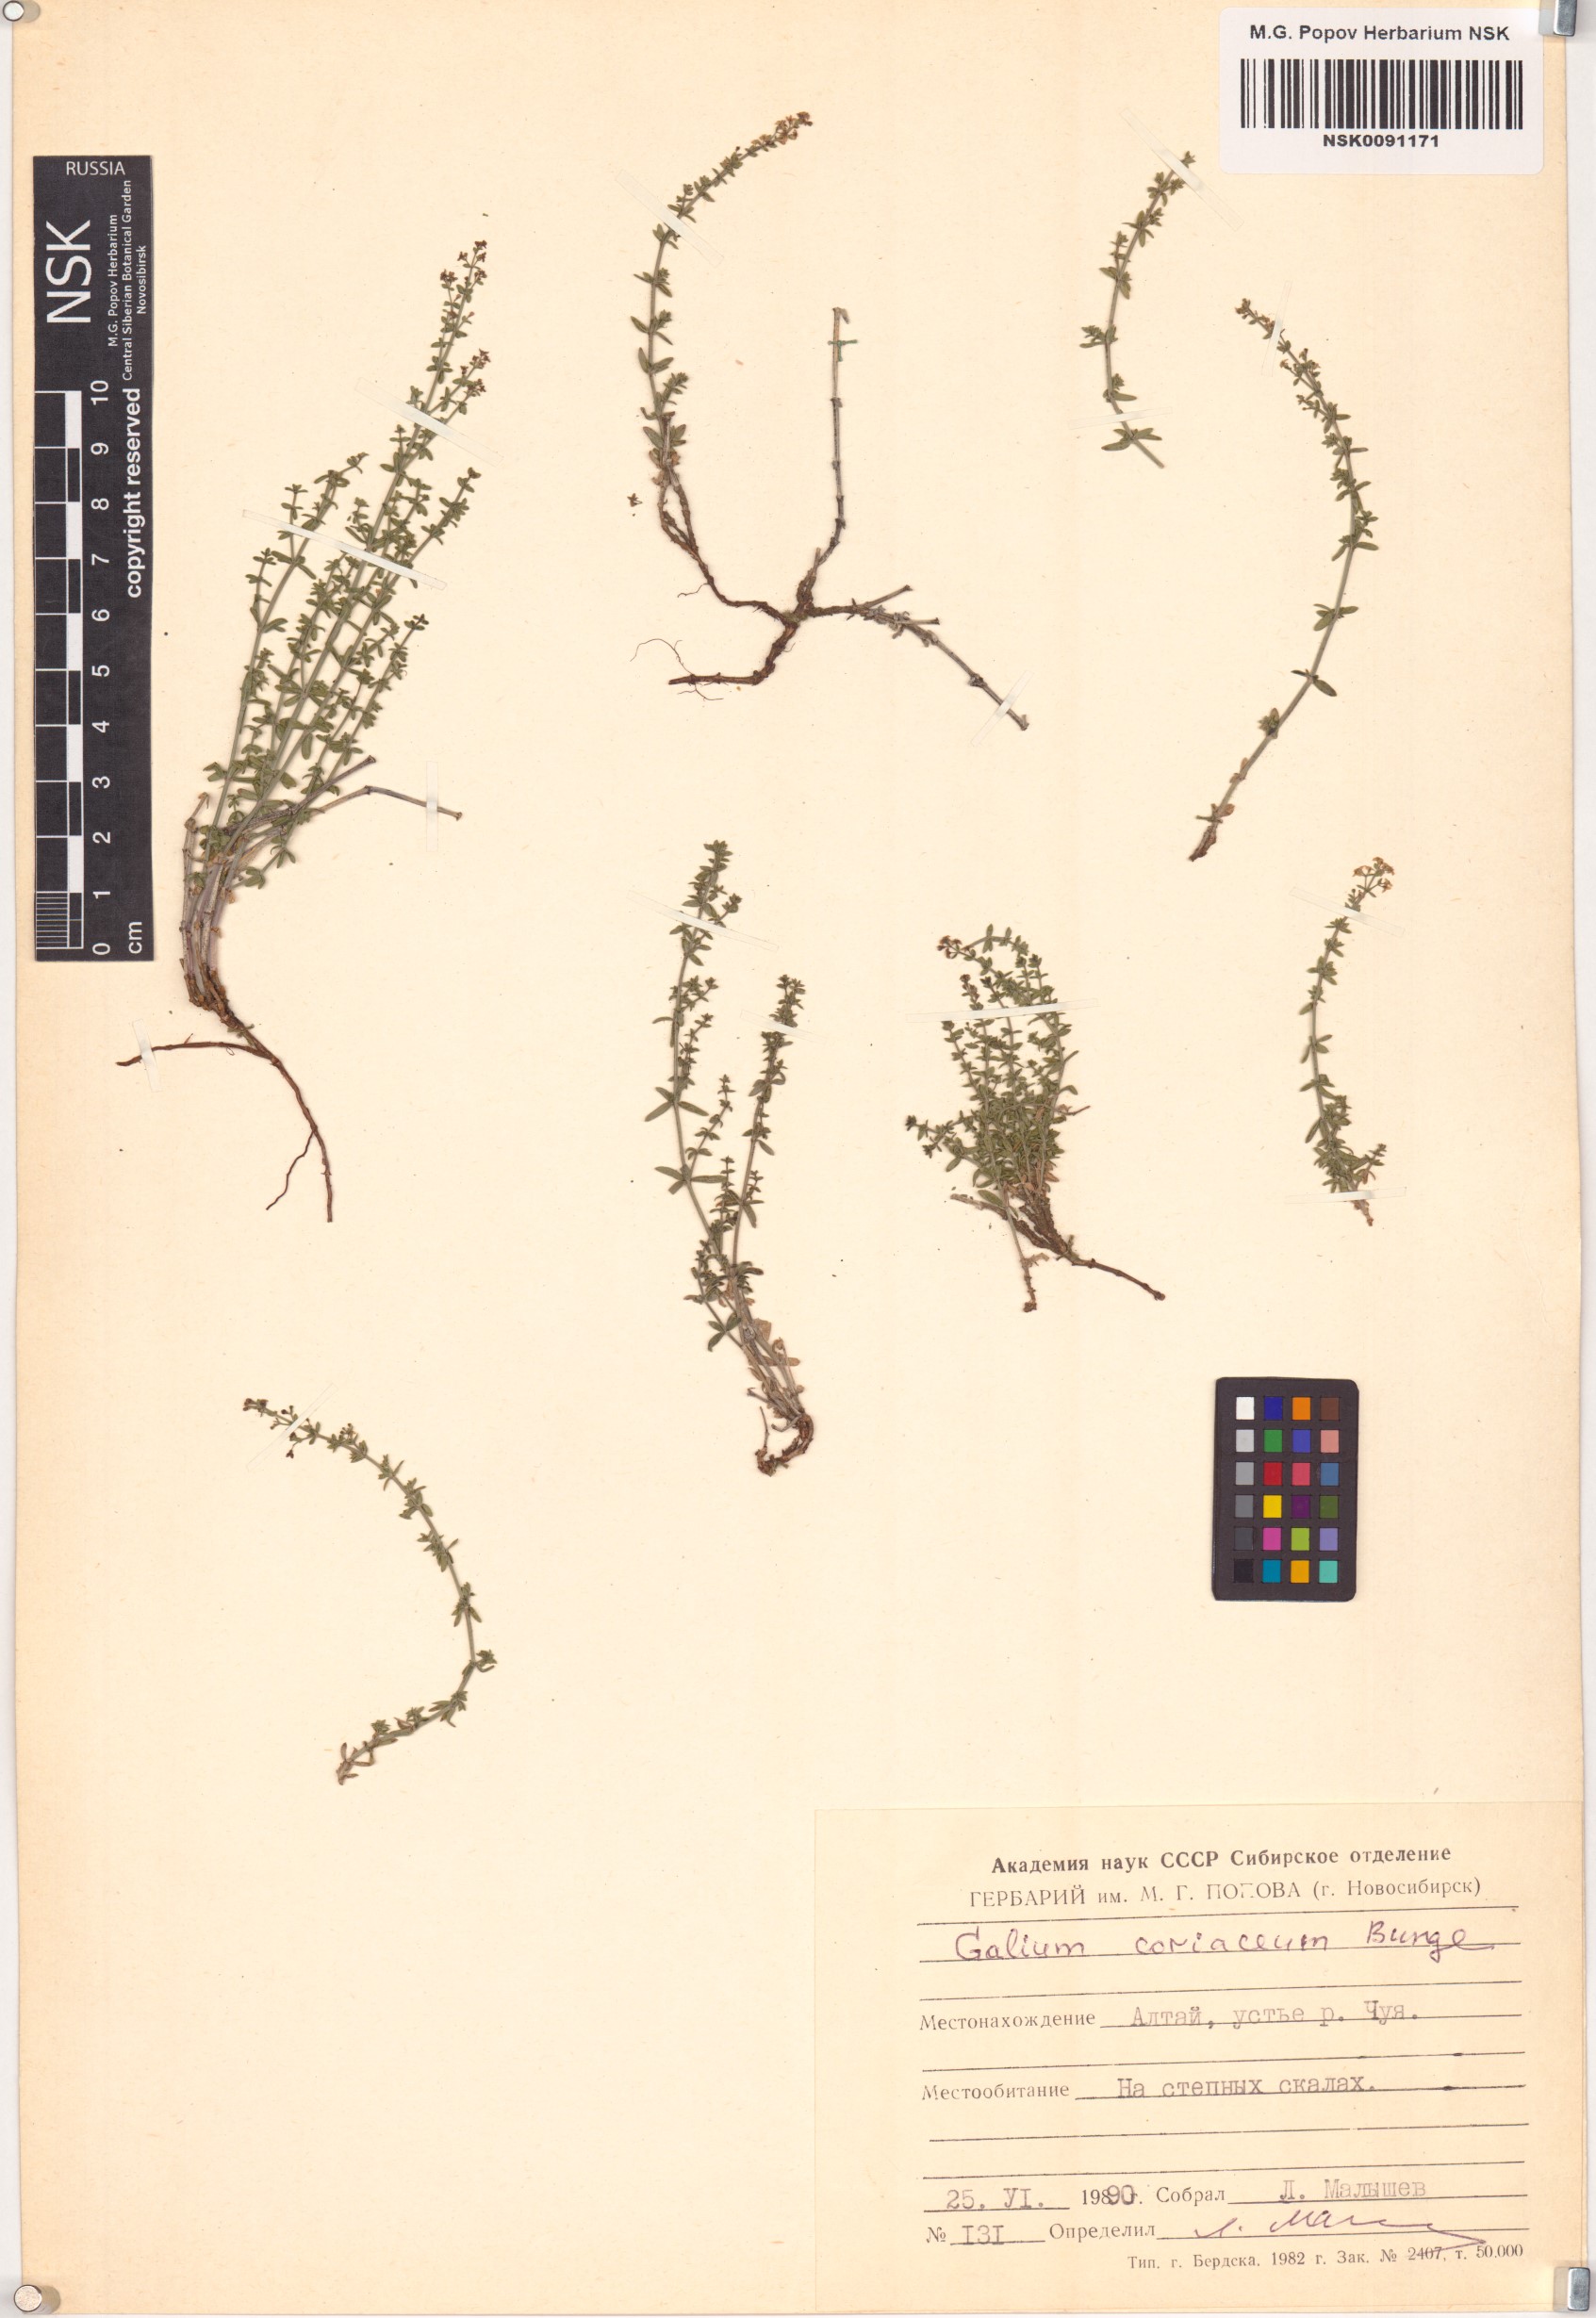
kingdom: Plantae
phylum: Tracheophyta
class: Magnoliopsida
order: Gentianales
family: Rubiaceae
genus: Galium
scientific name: Galium coriaceum
